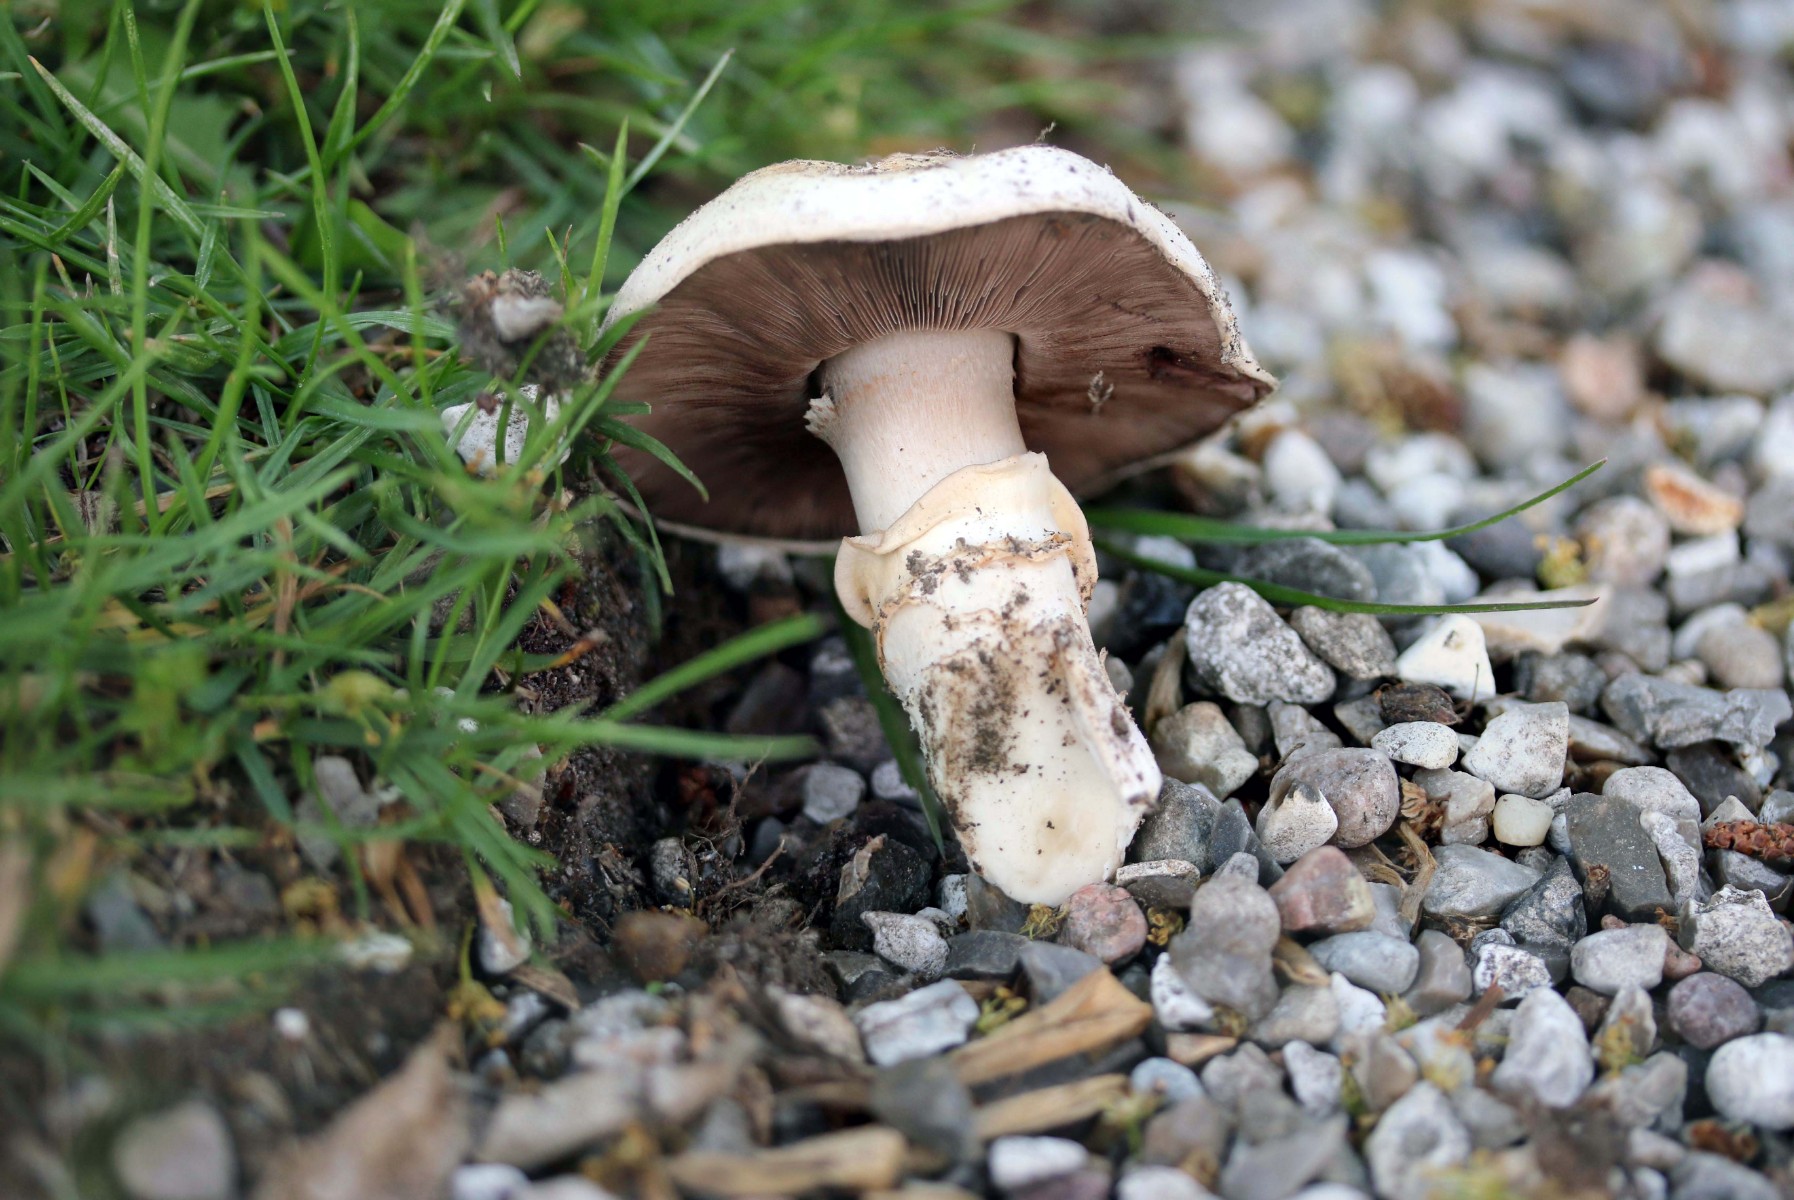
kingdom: Fungi
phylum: Basidiomycota
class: Agaricomycetes
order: Agaricales
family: Agaricaceae
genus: Agaricus
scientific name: Agaricus bitorquis
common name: vej-champignon
